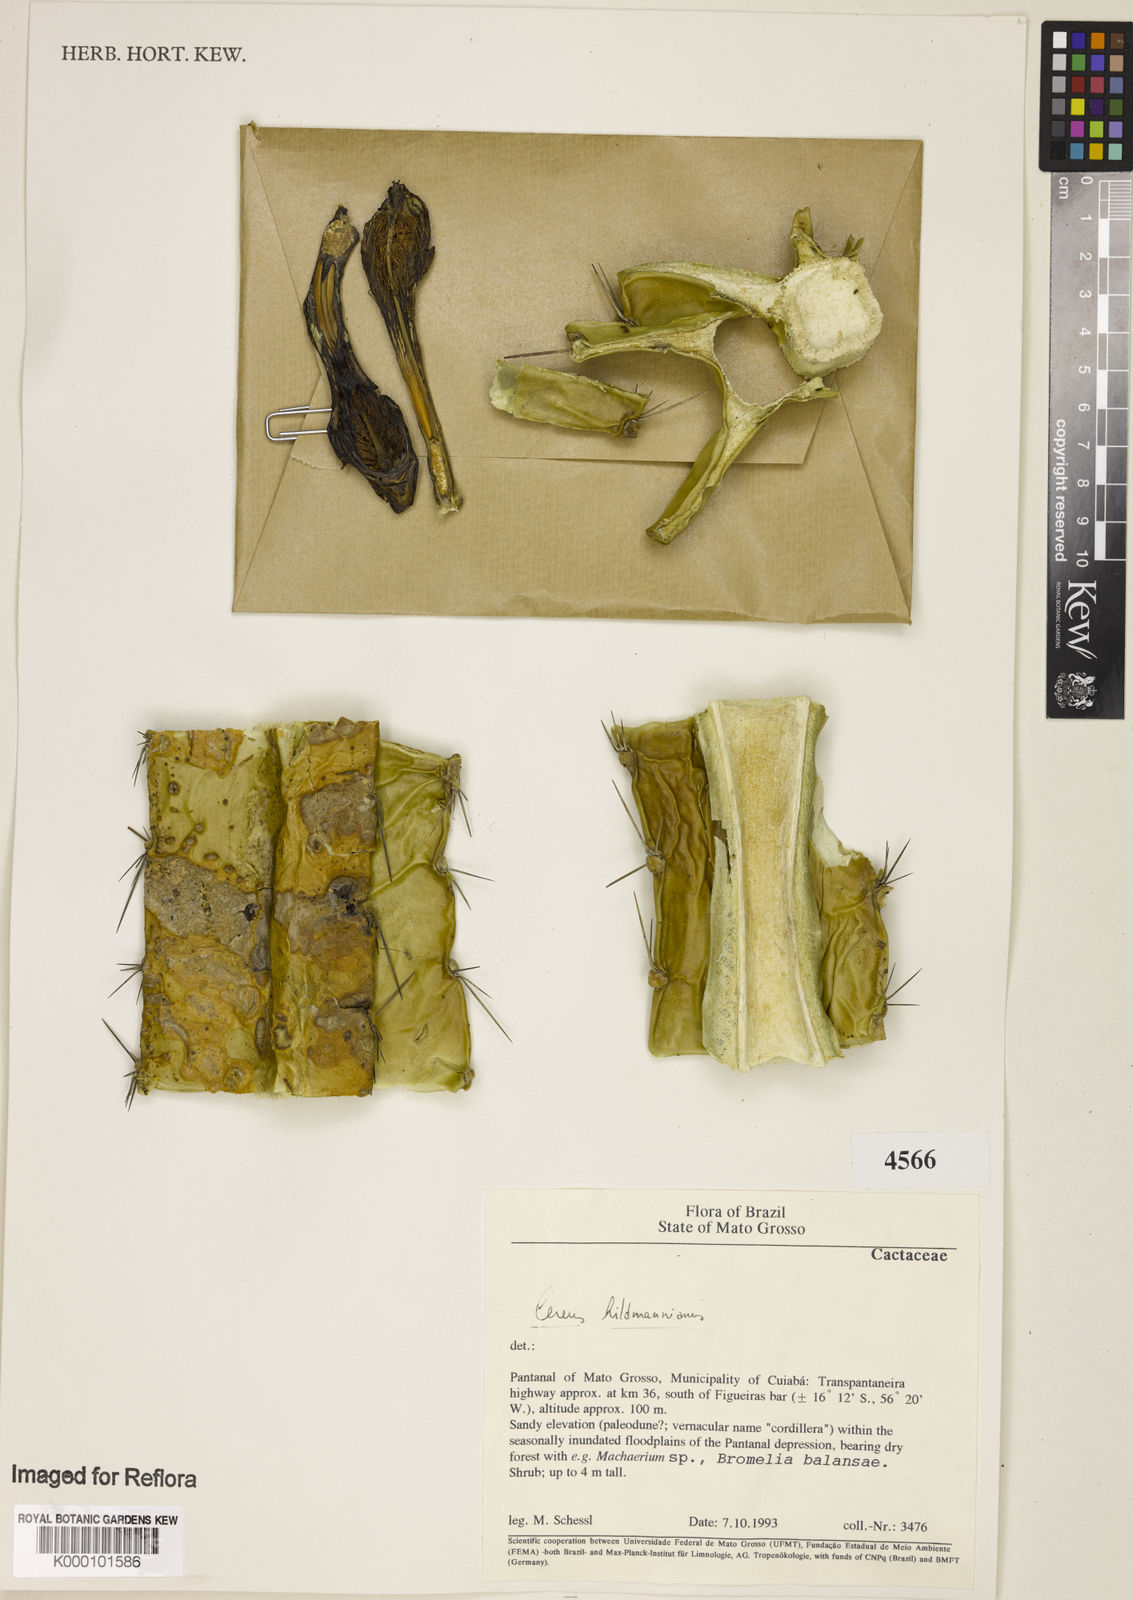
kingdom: Plantae
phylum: Tracheophyta
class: Magnoliopsida
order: Caryophyllales
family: Cactaceae
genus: Cereus
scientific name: Cereus hildmannianus
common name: Hedge cactus
